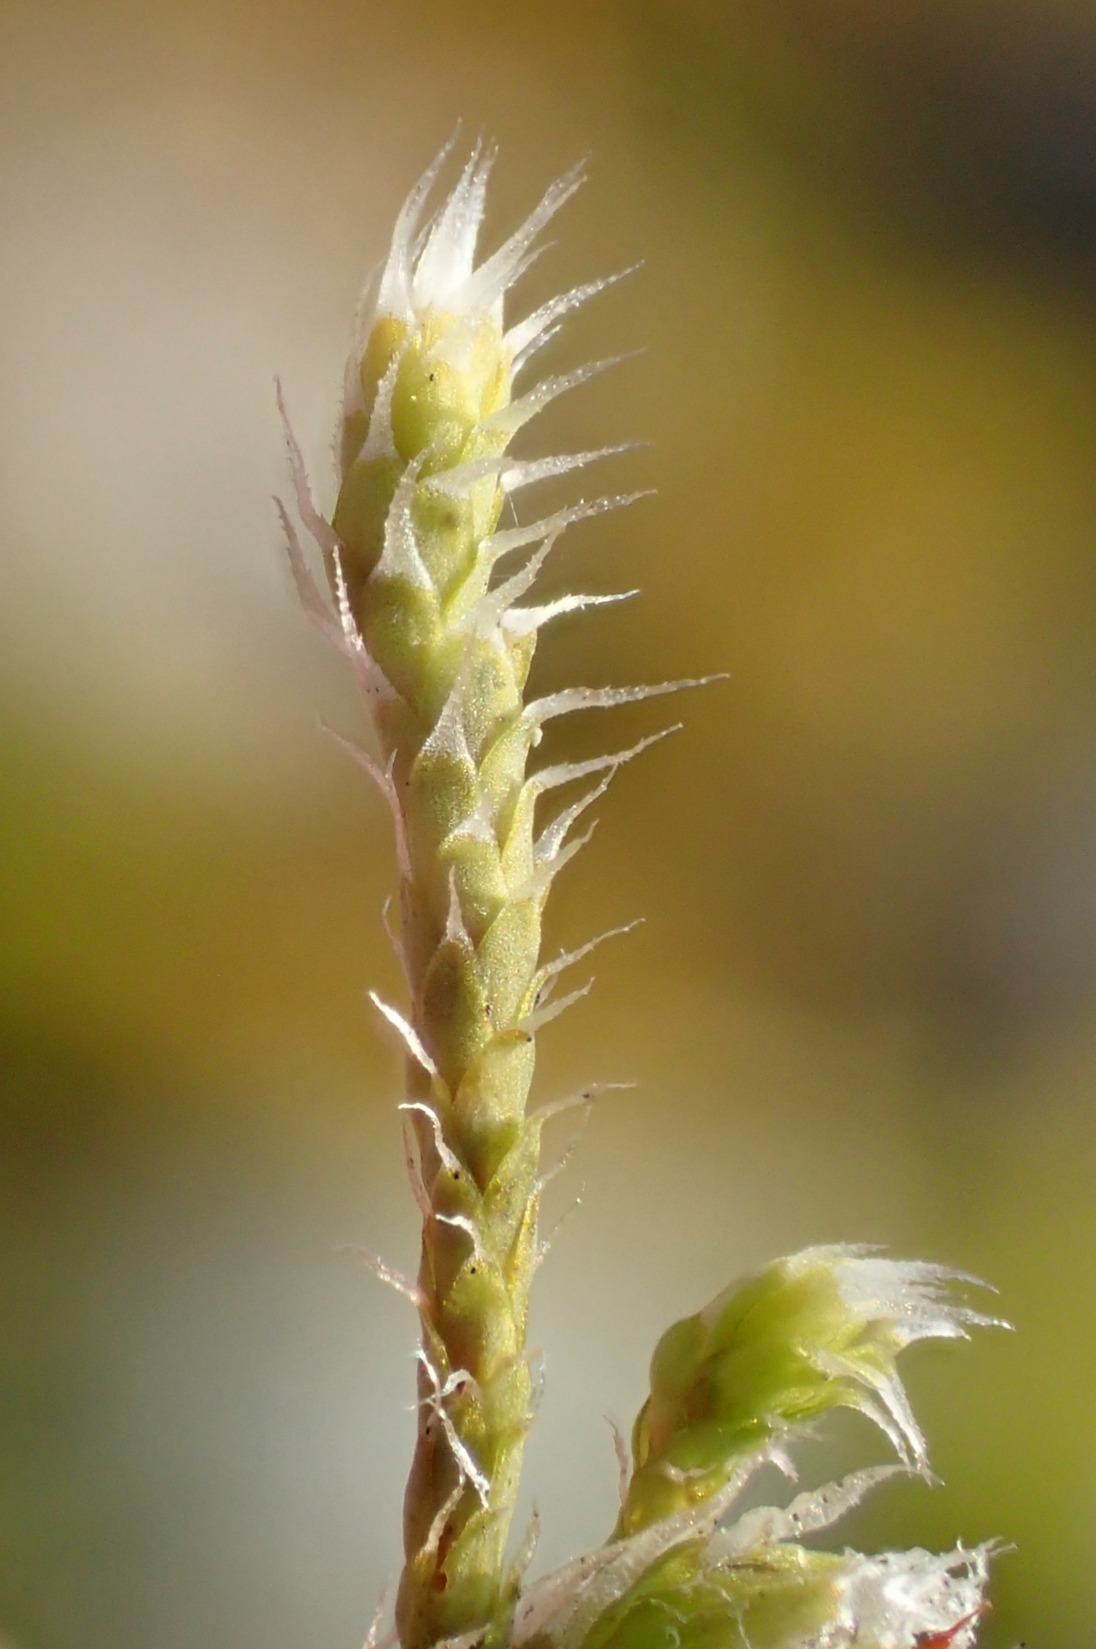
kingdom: Plantae
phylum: Bryophyta
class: Bryopsida
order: Hedwigiales
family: Hedwigiaceae
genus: Hedwigia
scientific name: Hedwigia stellata
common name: Stjernebladet hedwigia
